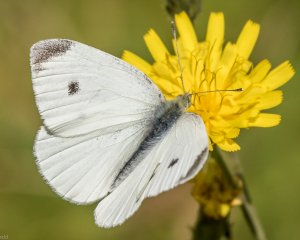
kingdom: Animalia
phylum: Arthropoda
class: Insecta
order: Lepidoptera
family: Pieridae
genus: Pieris
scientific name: Pieris rapae
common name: Cabbage White
